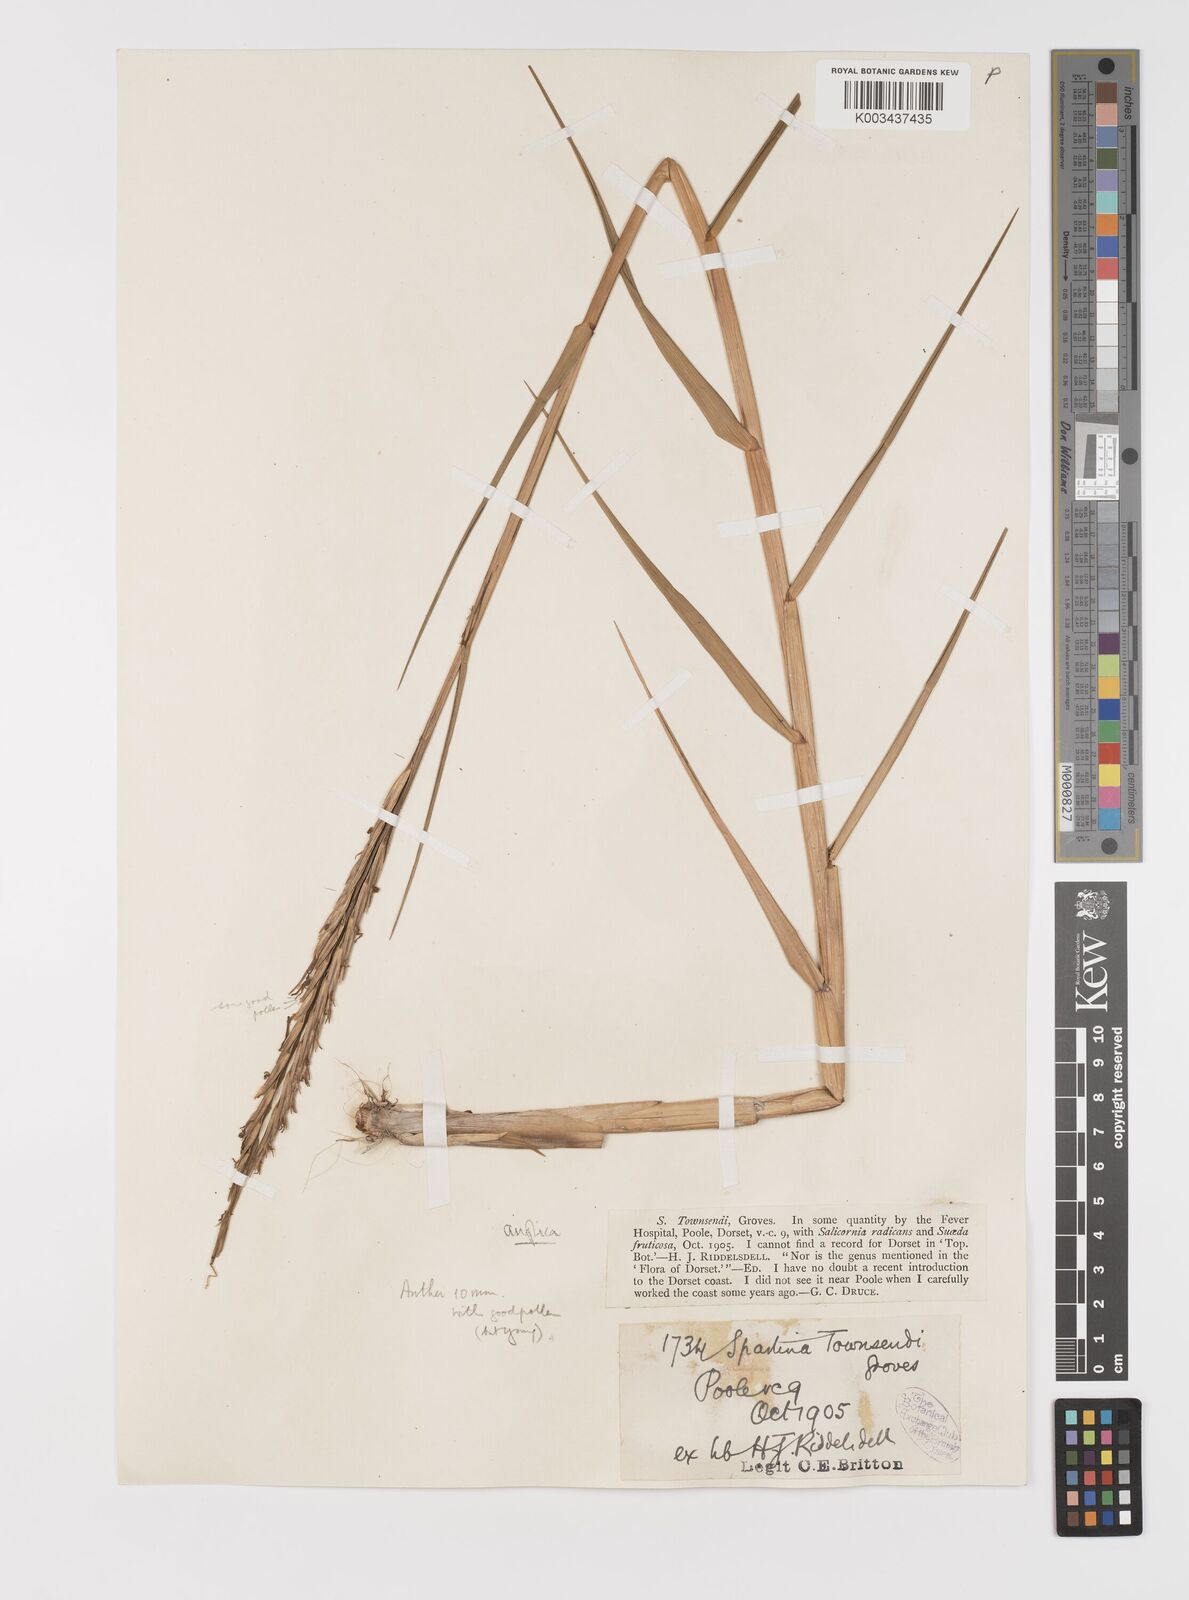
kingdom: Plantae
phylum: Tracheophyta
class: Liliopsida
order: Poales
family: Poaceae
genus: Sporobolus
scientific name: Sporobolus anglicus
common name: English cordgrass
